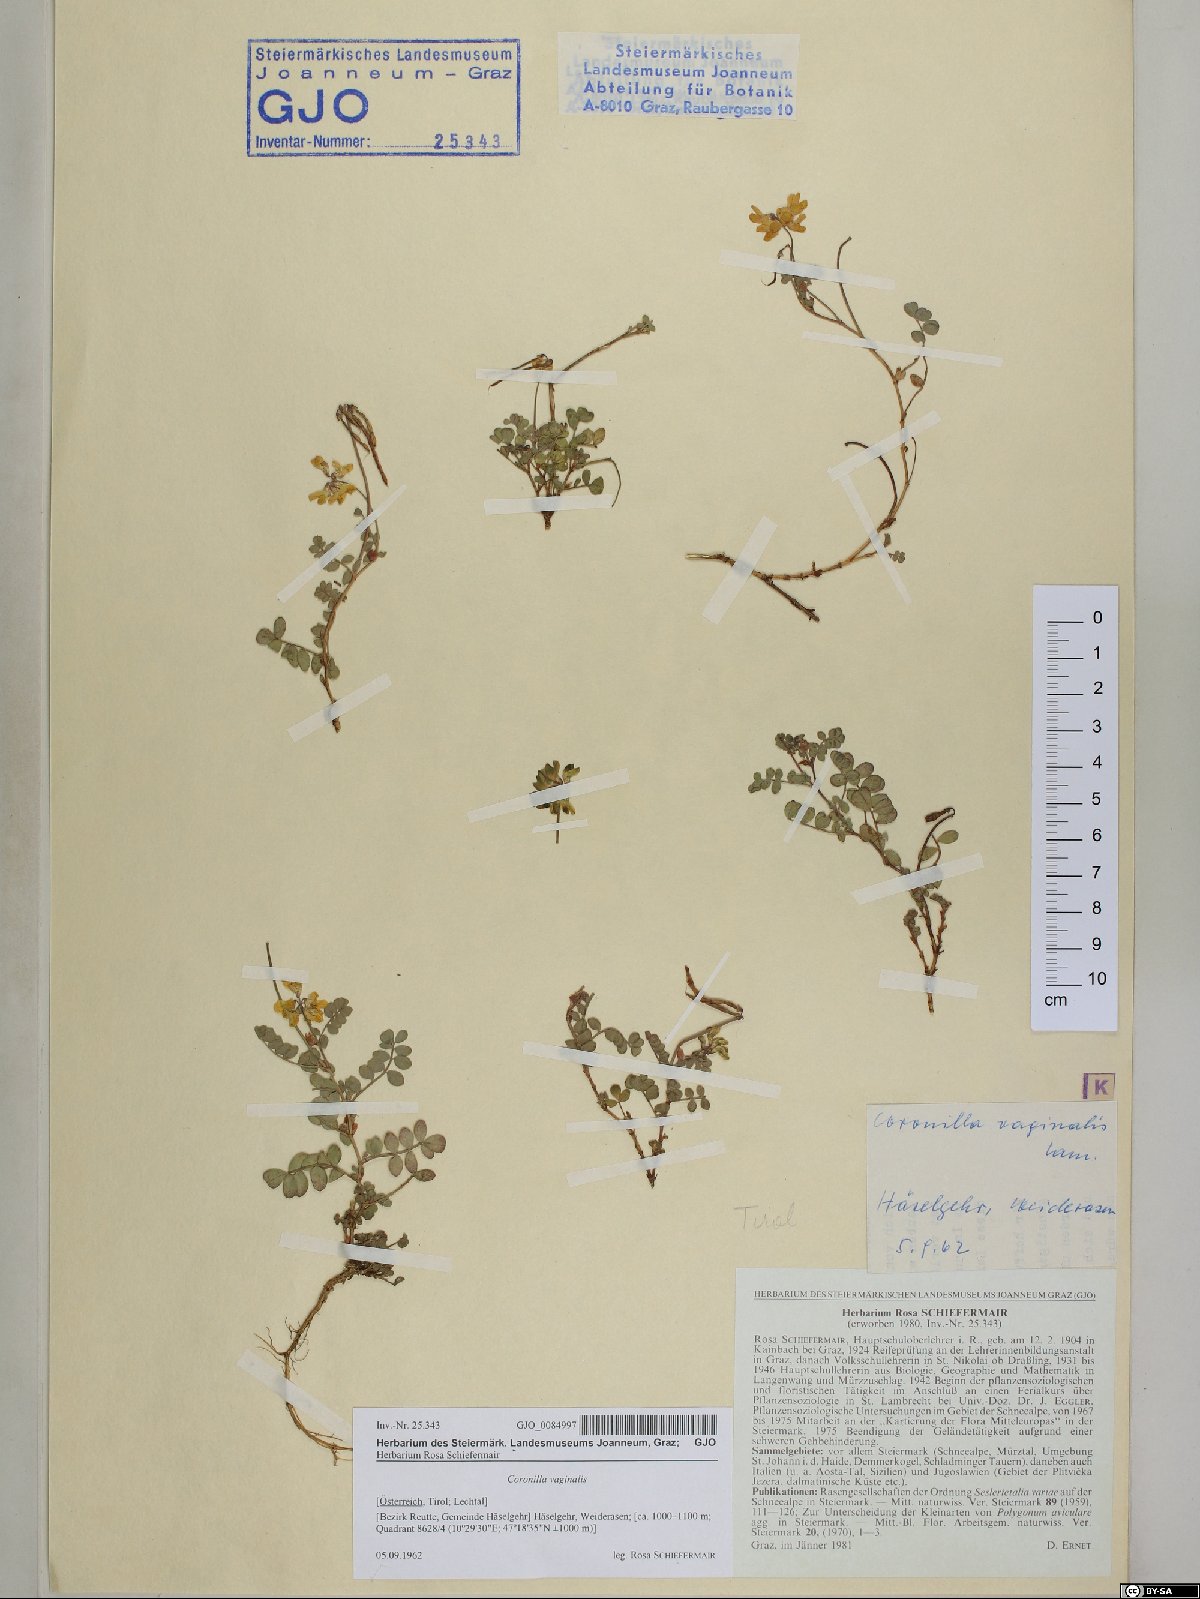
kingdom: Plantae
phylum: Tracheophyta
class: Magnoliopsida
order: Fabales
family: Fabaceae
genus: Coronilla
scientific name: Coronilla vaginalis
